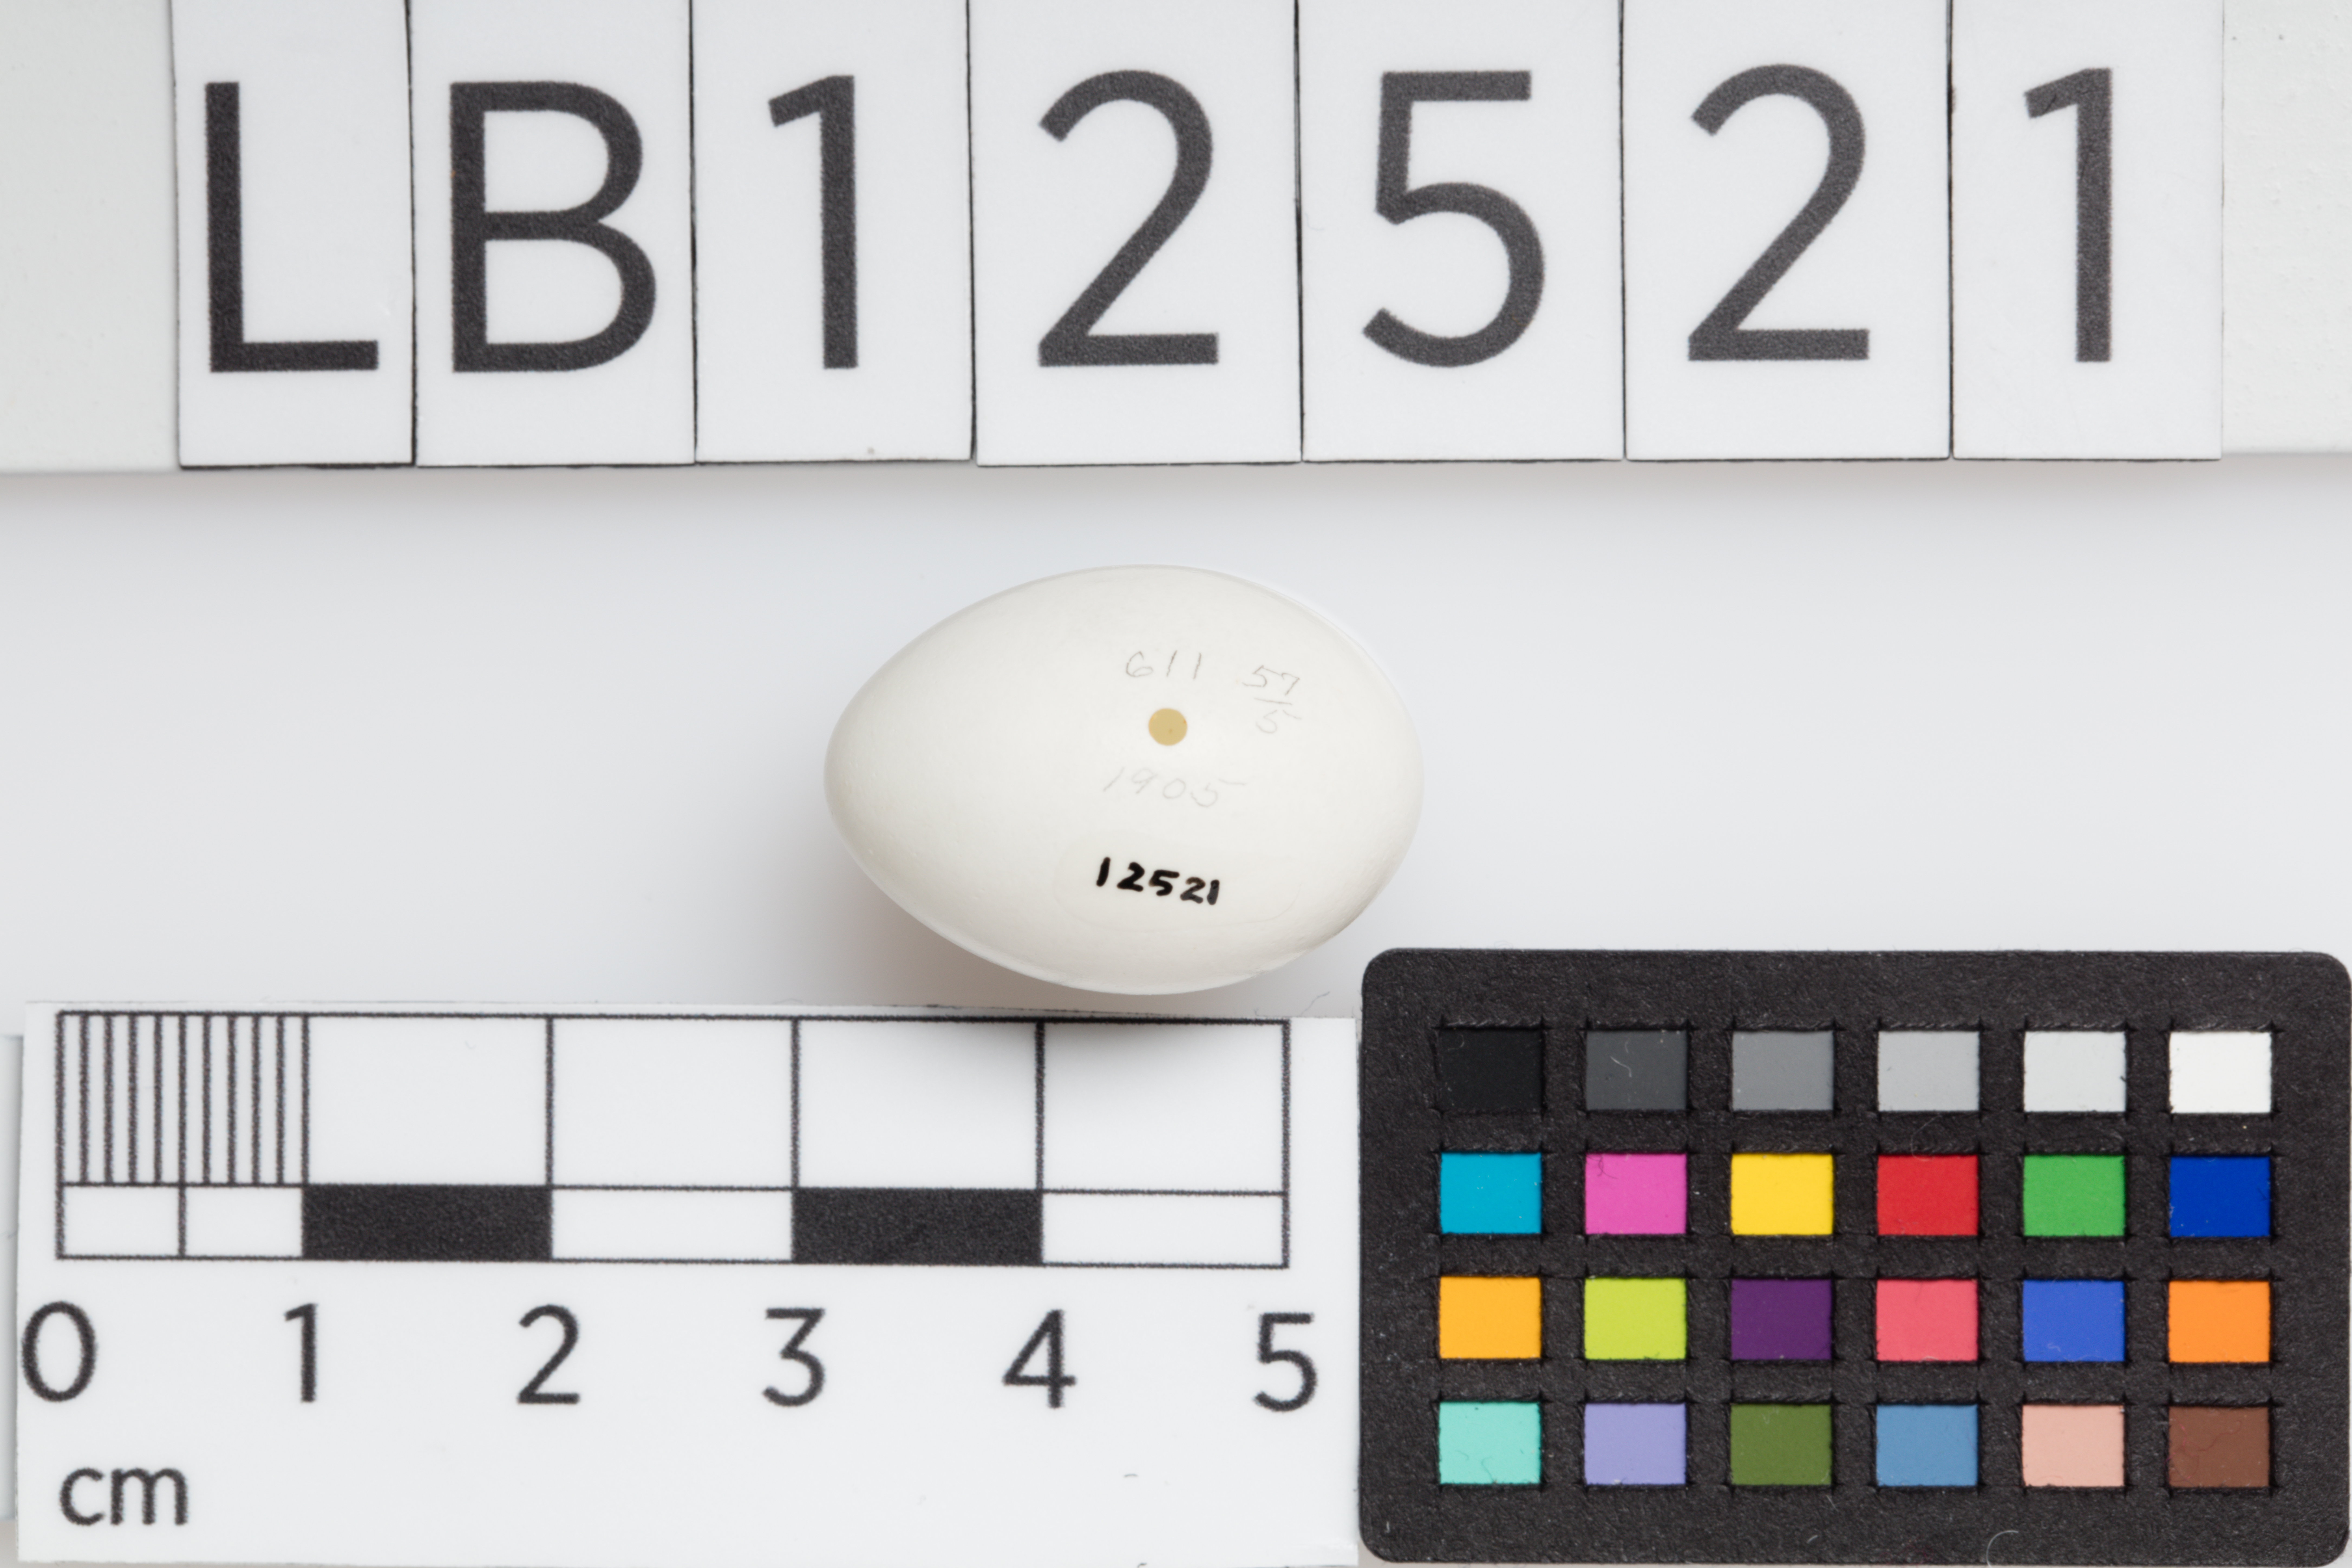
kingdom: Animalia
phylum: Chordata
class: Aves
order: Passeriformes
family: Hirundinidae
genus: Progne
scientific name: Progne subis
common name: Purple martin
